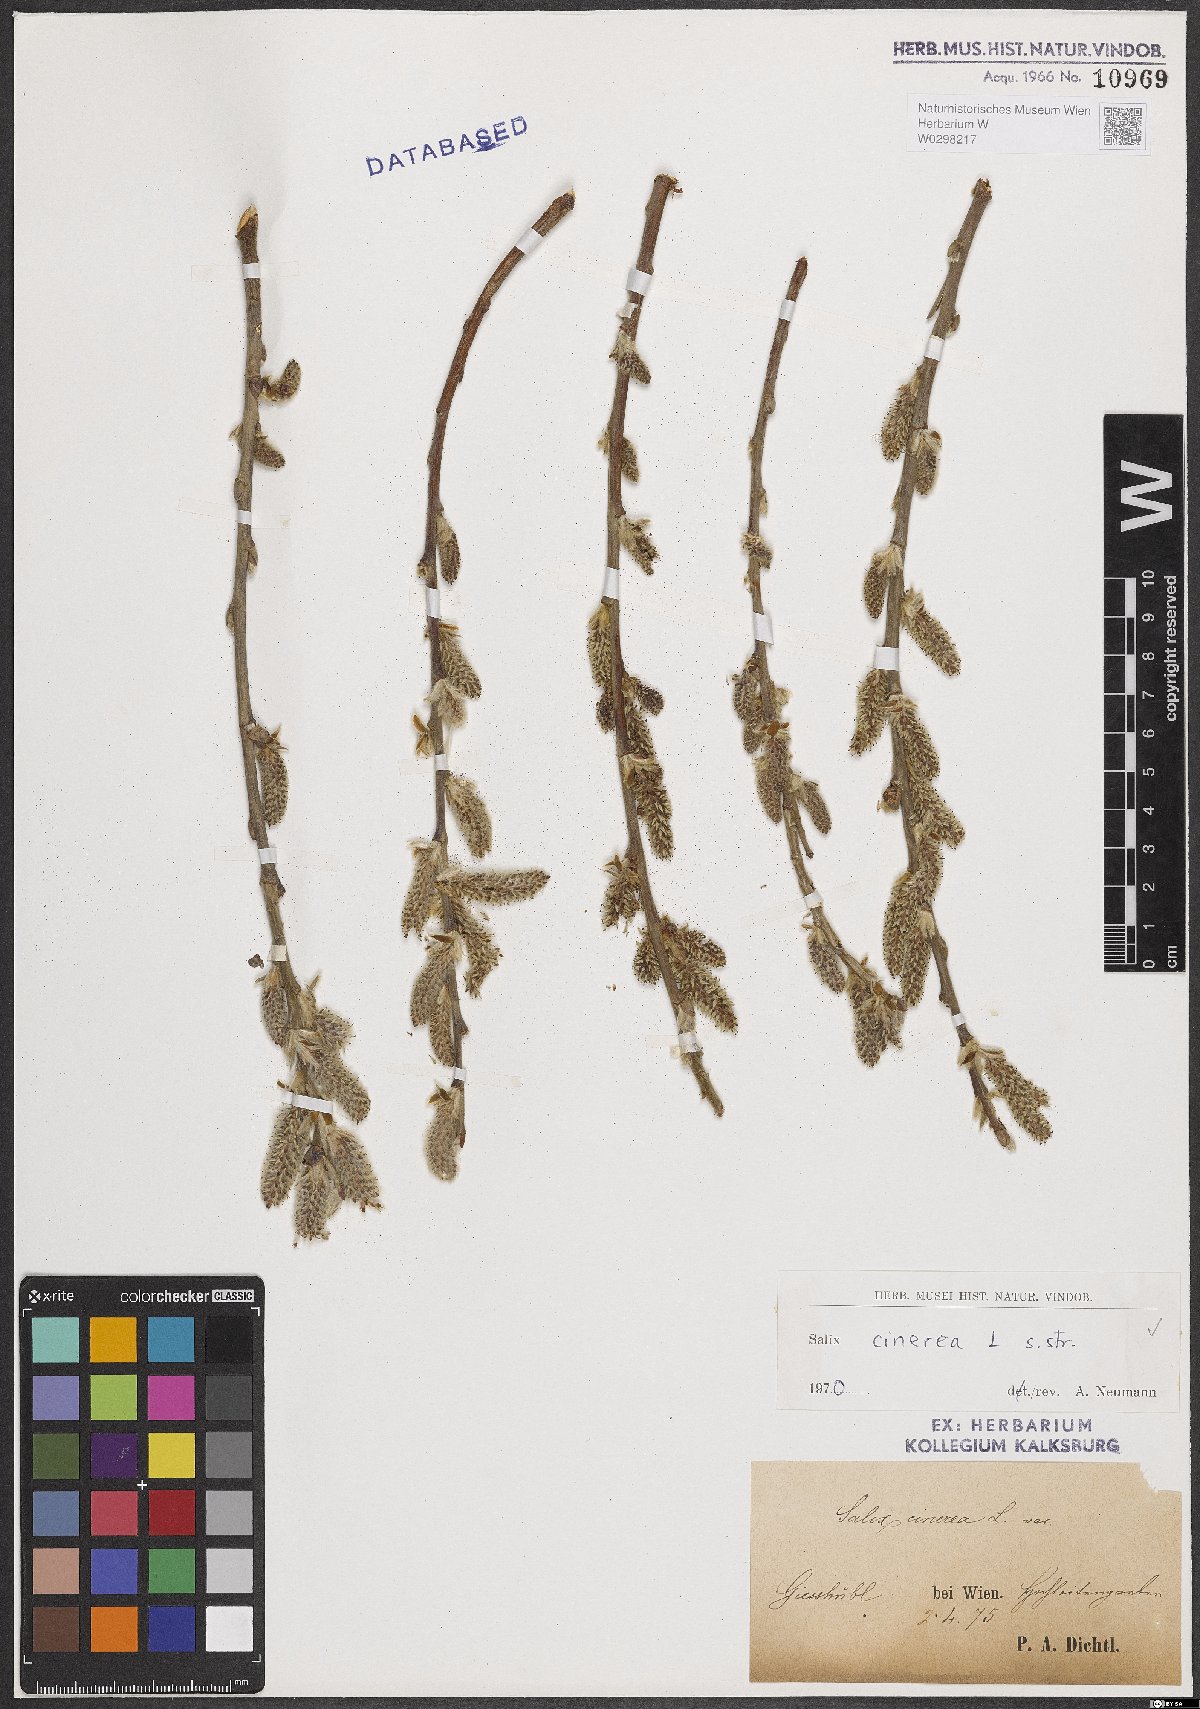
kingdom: Plantae
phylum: Tracheophyta
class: Magnoliopsida
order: Malpighiales
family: Salicaceae
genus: Salix
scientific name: Salix cinerea
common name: Common sallow
